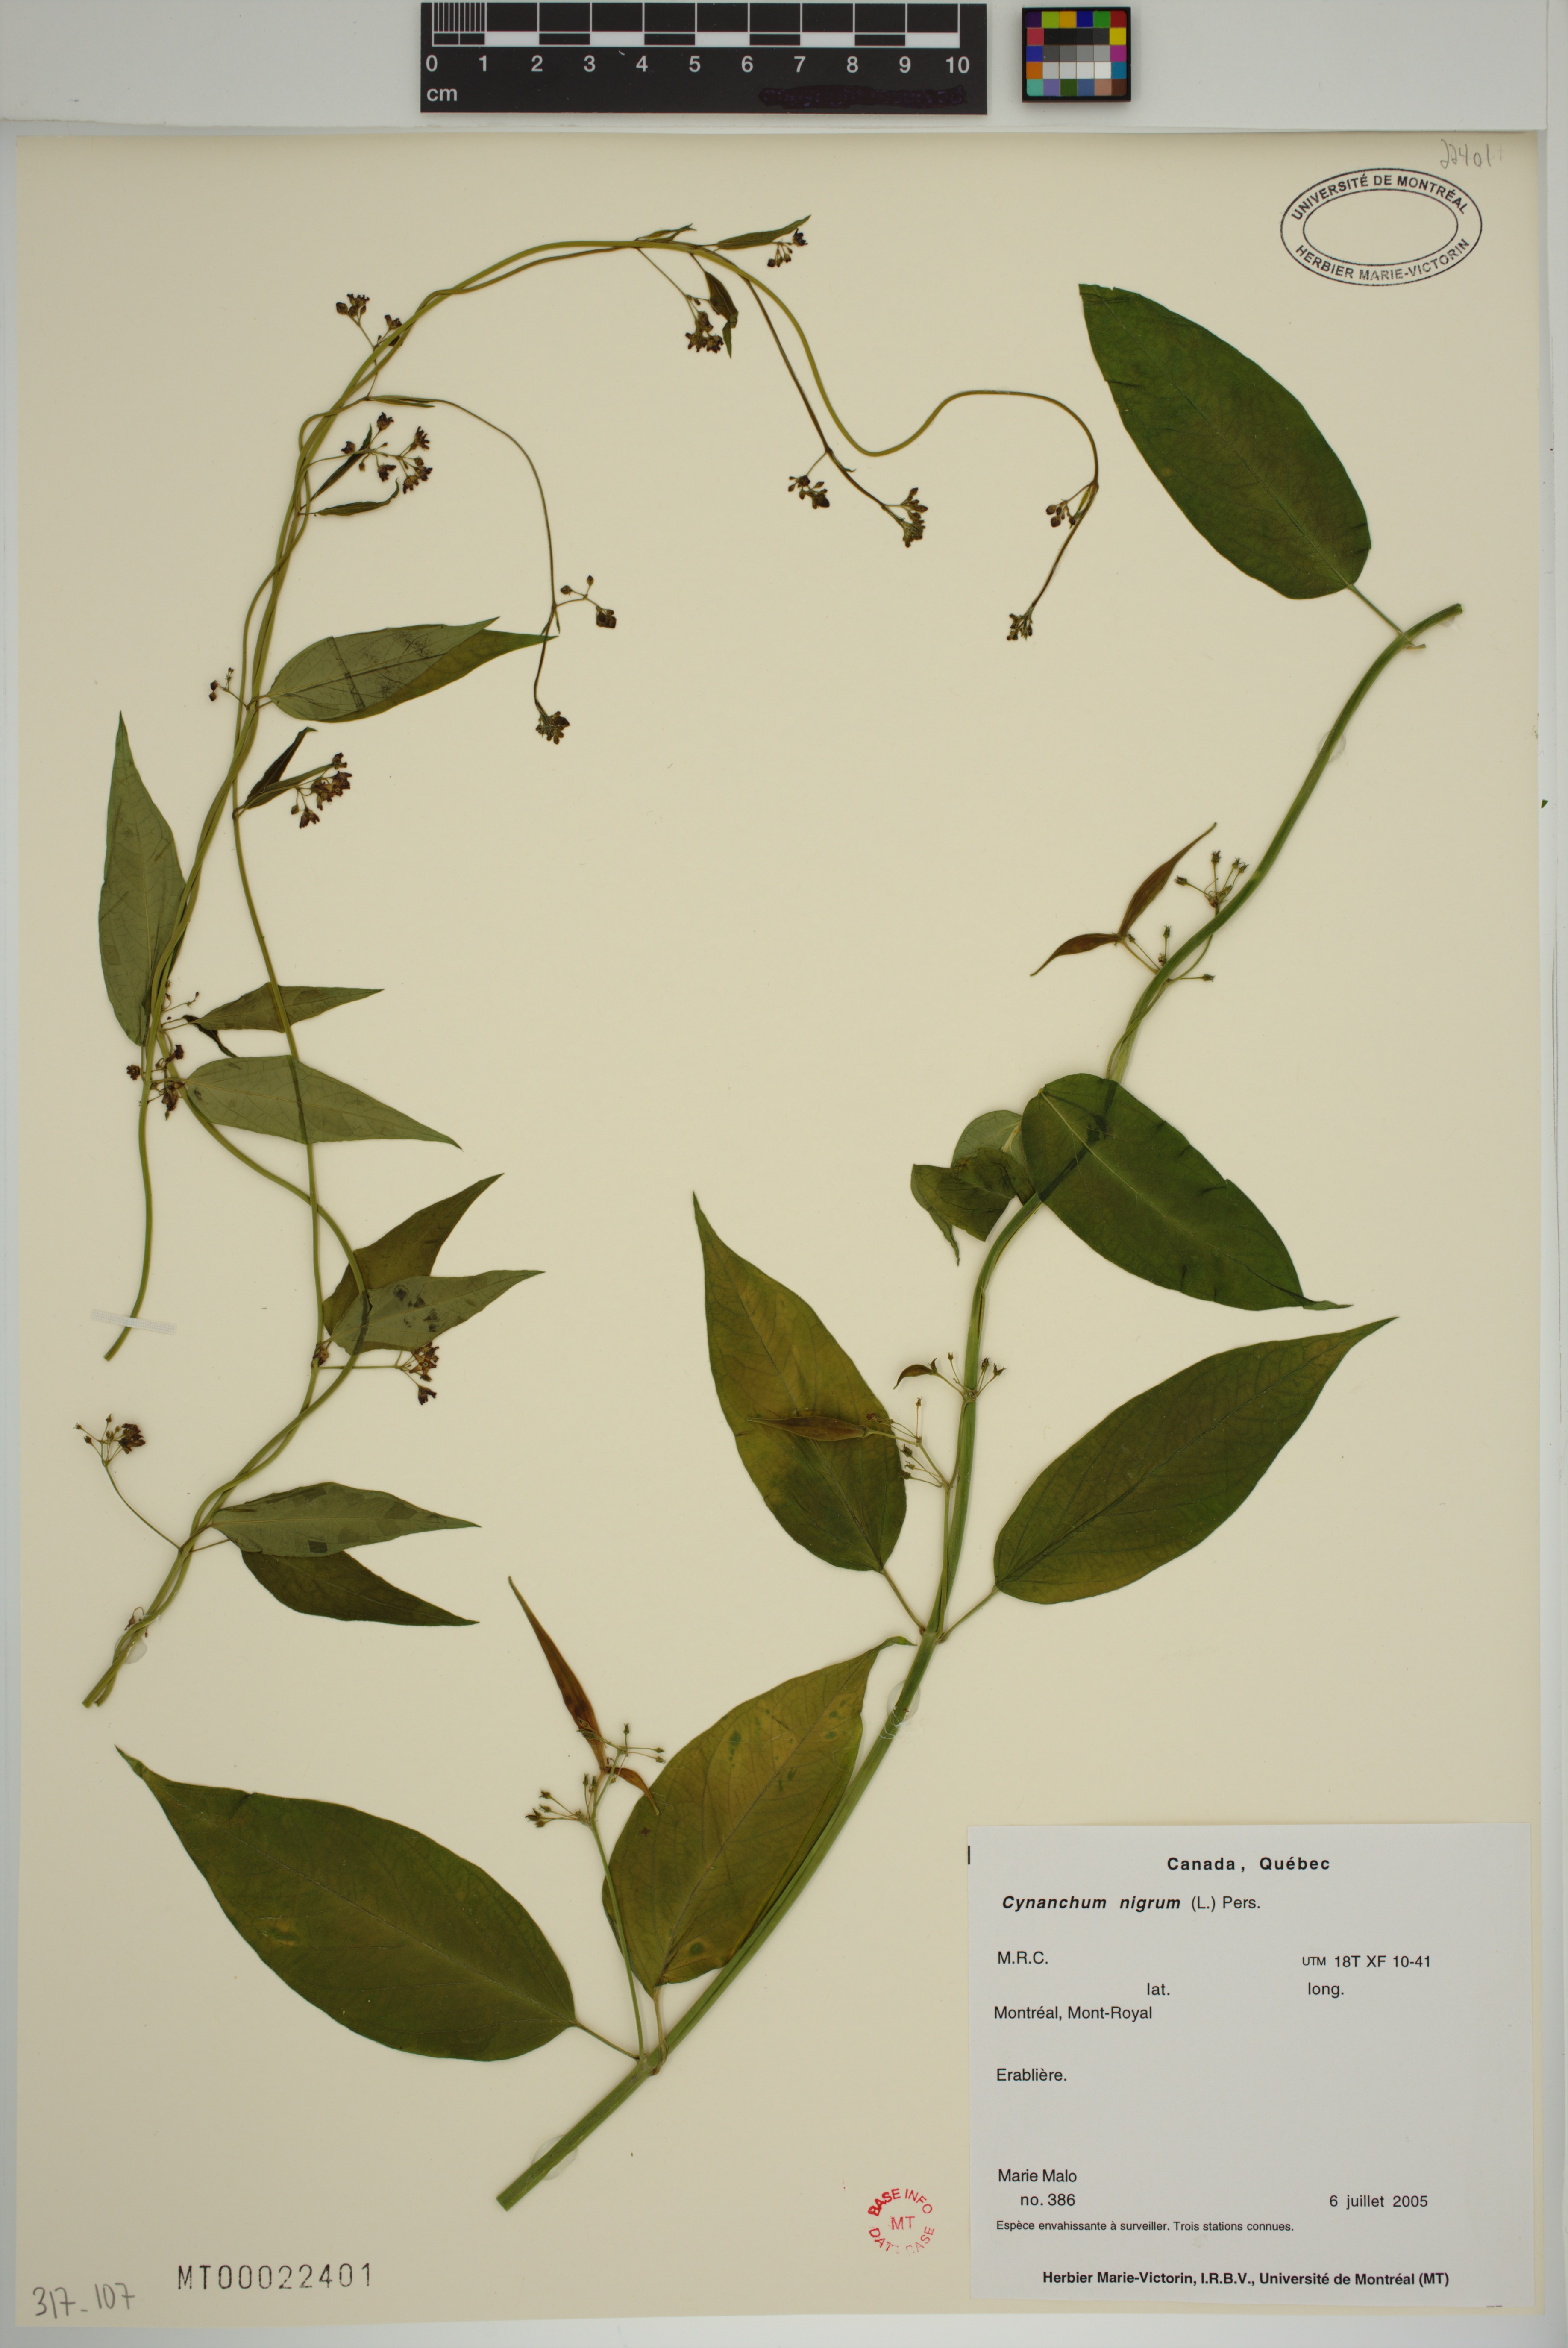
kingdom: Plantae
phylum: Tracheophyta
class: Magnoliopsida
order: Gentianales
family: Apocynaceae
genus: Vincetoxicum
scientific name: Vincetoxicum nigrum
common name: Black swallow-wort
